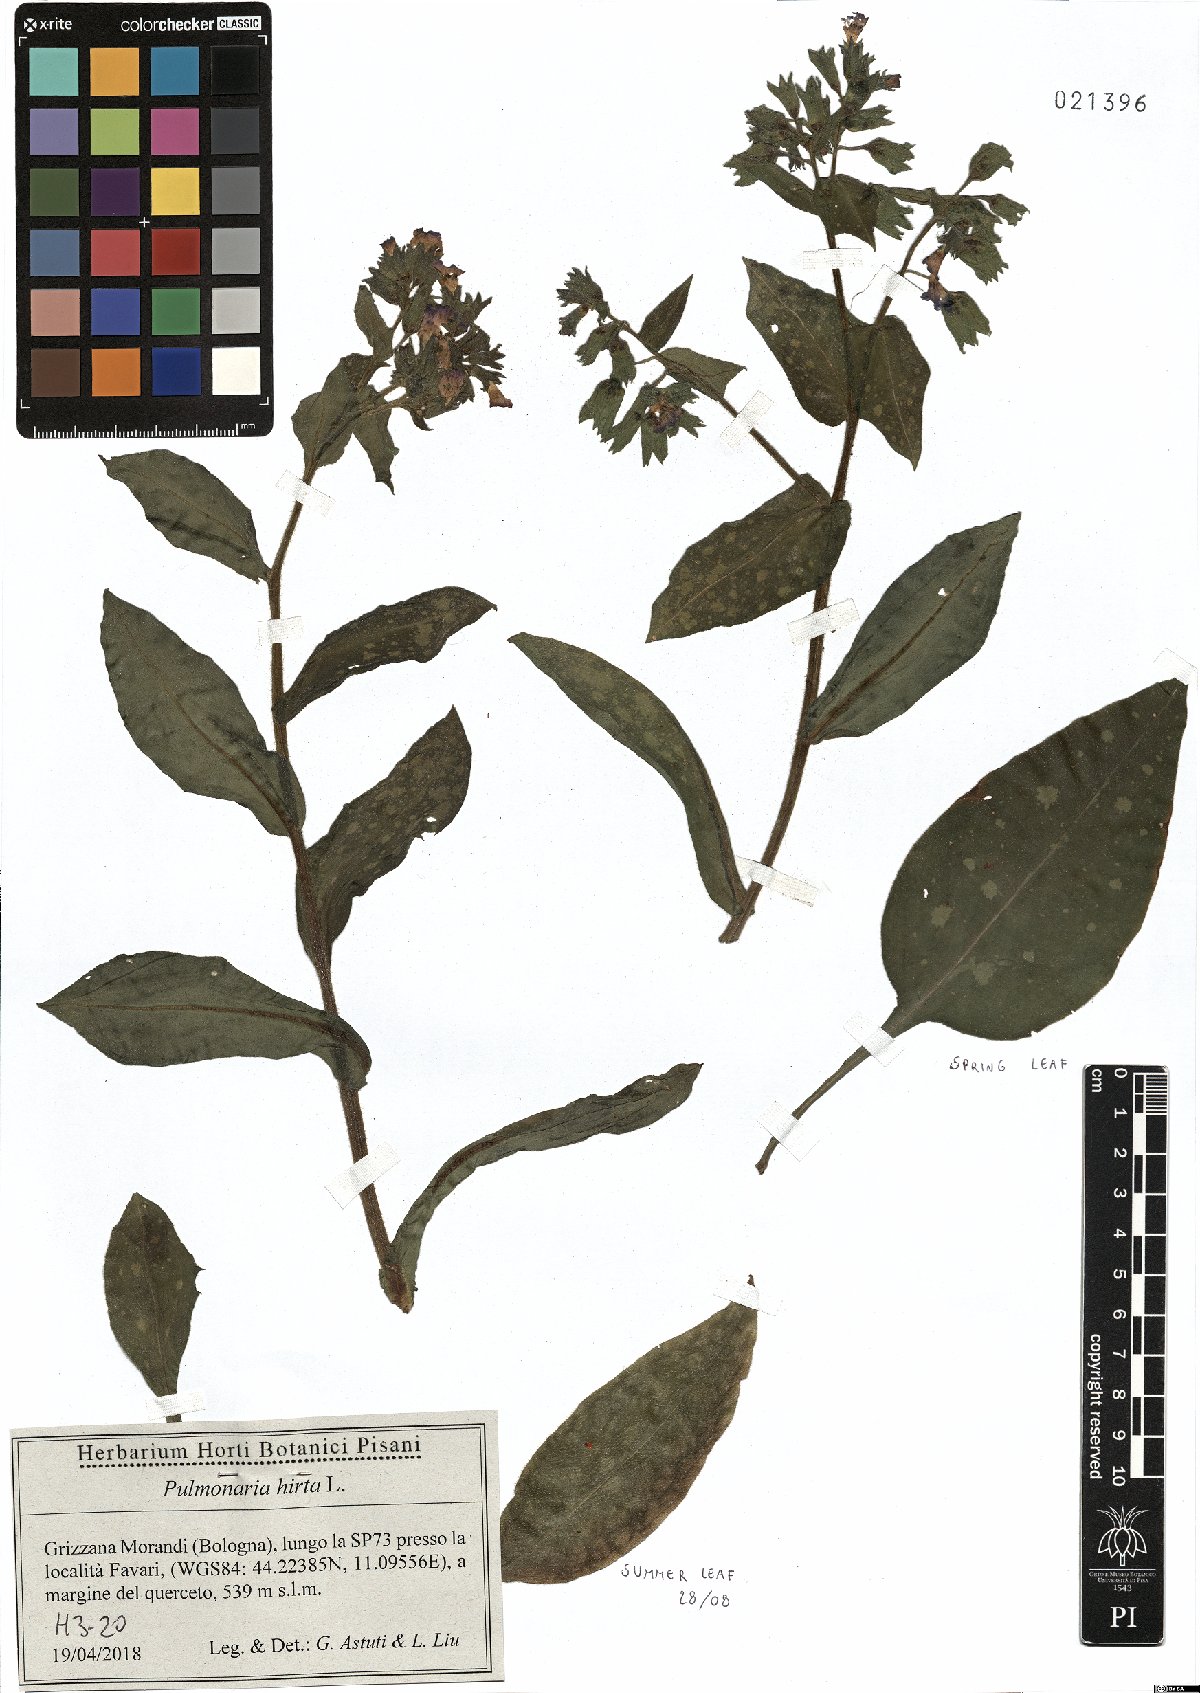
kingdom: Plantae
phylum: Tracheophyta
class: Magnoliopsida
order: Boraginales
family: Boraginaceae
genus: Pulmonaria
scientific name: Pulmonaria hirta
